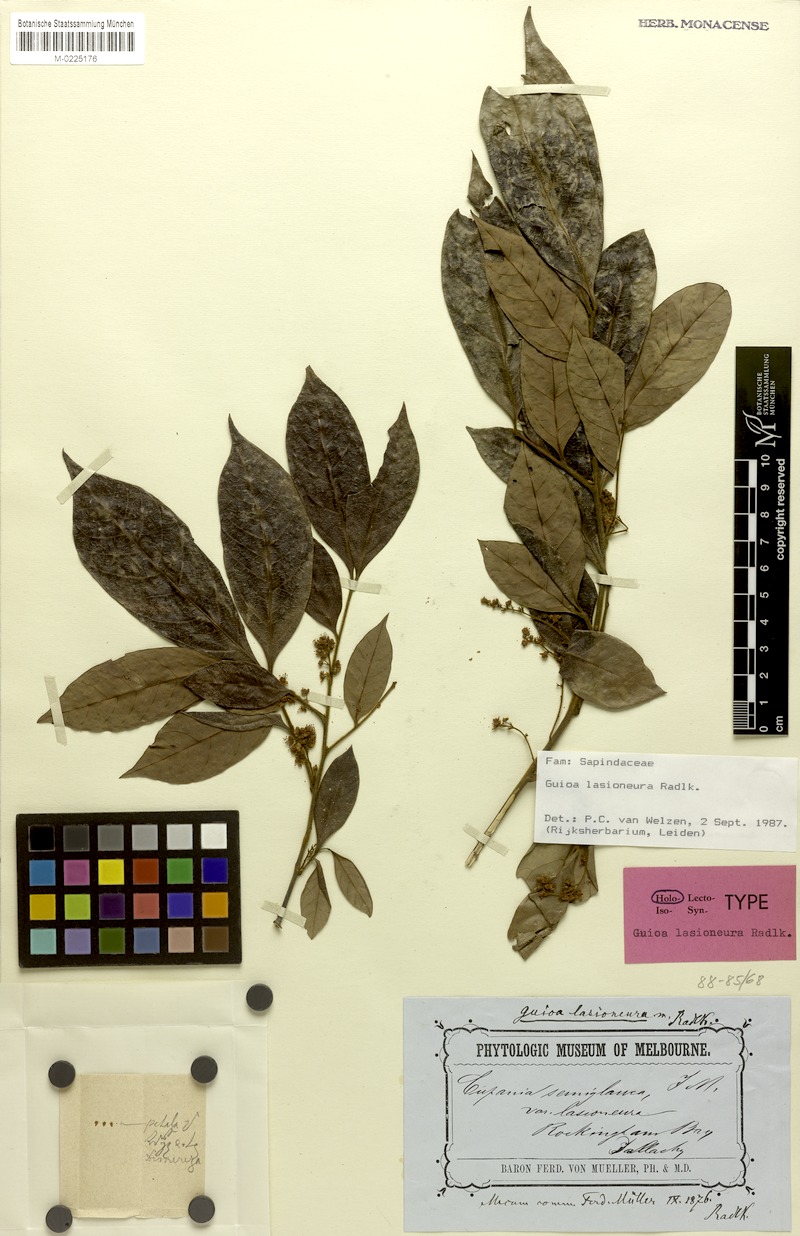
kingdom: Plantae
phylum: Tracheophyta
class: Magnoliopsida
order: Sapindales
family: Sapindaceae
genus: Guioa
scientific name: Guioa lasioneura
